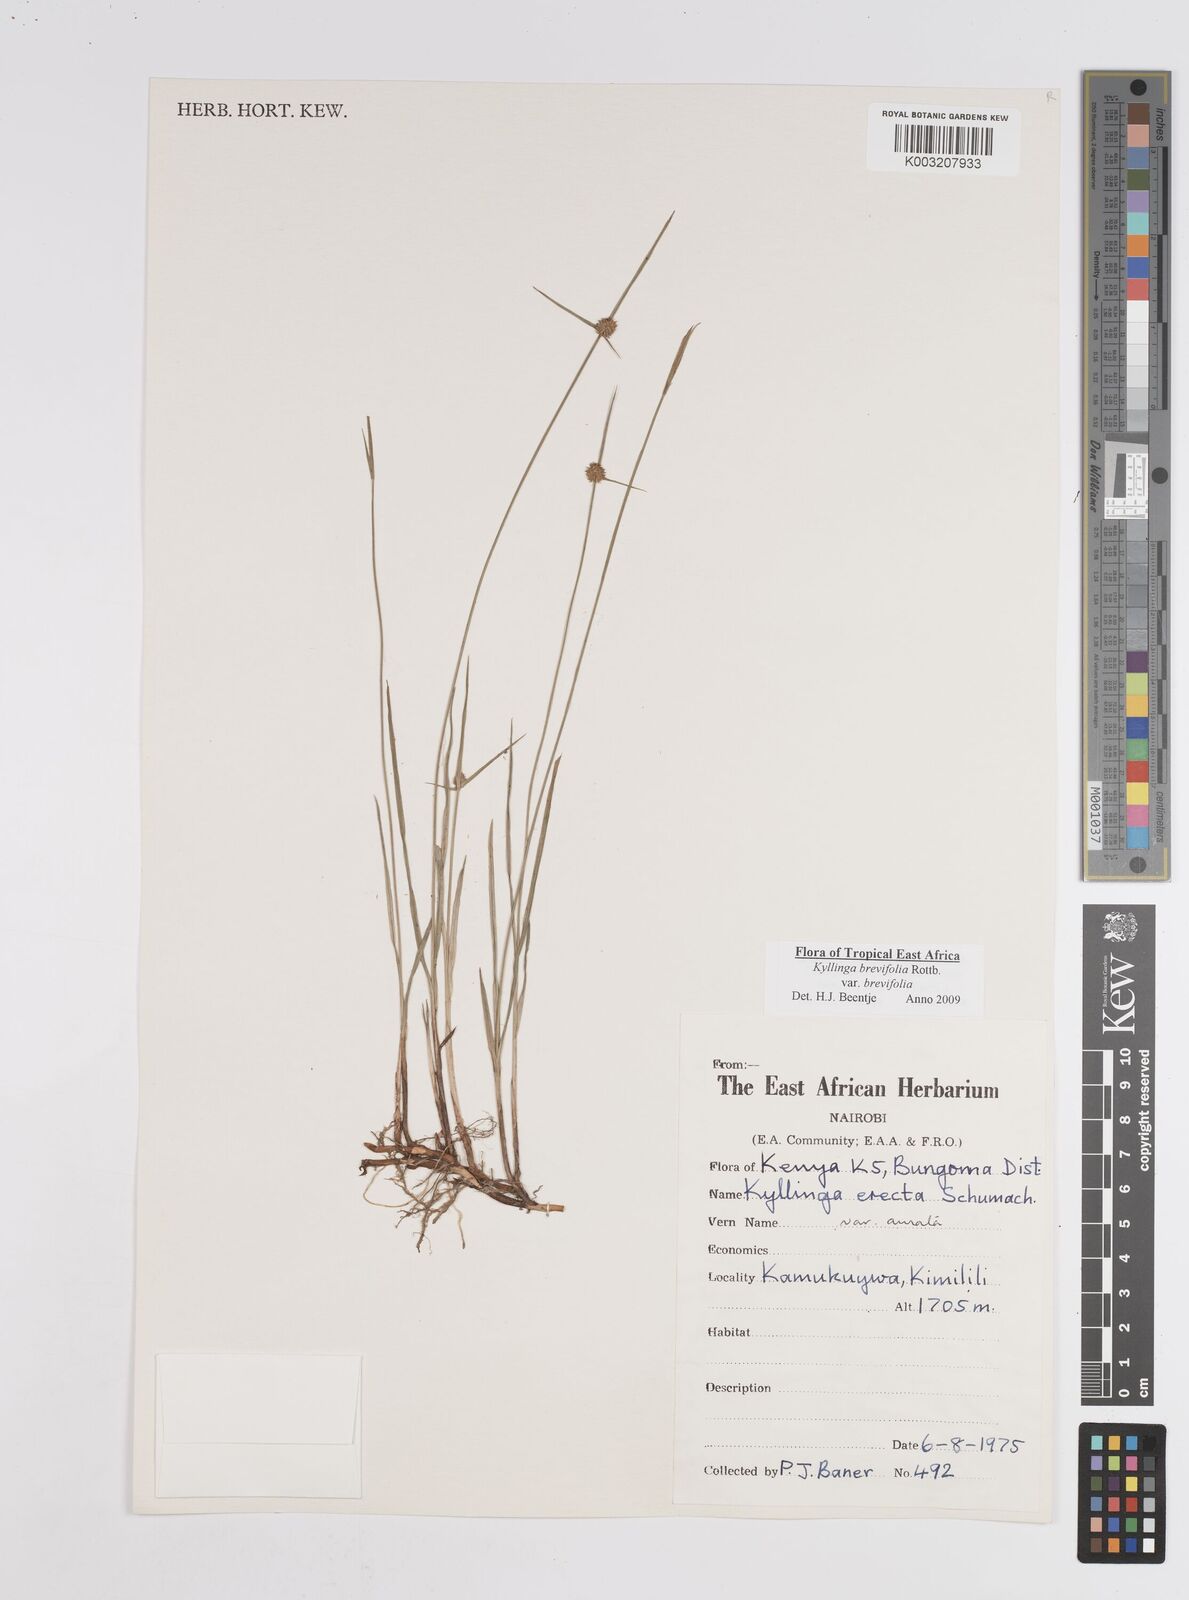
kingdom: Plantae
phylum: Tracheophyta
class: Liliopsida
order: Poales
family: Cyperaceae
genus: Cyperus
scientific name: Cyperus brevifolius
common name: Globe kyllinga
